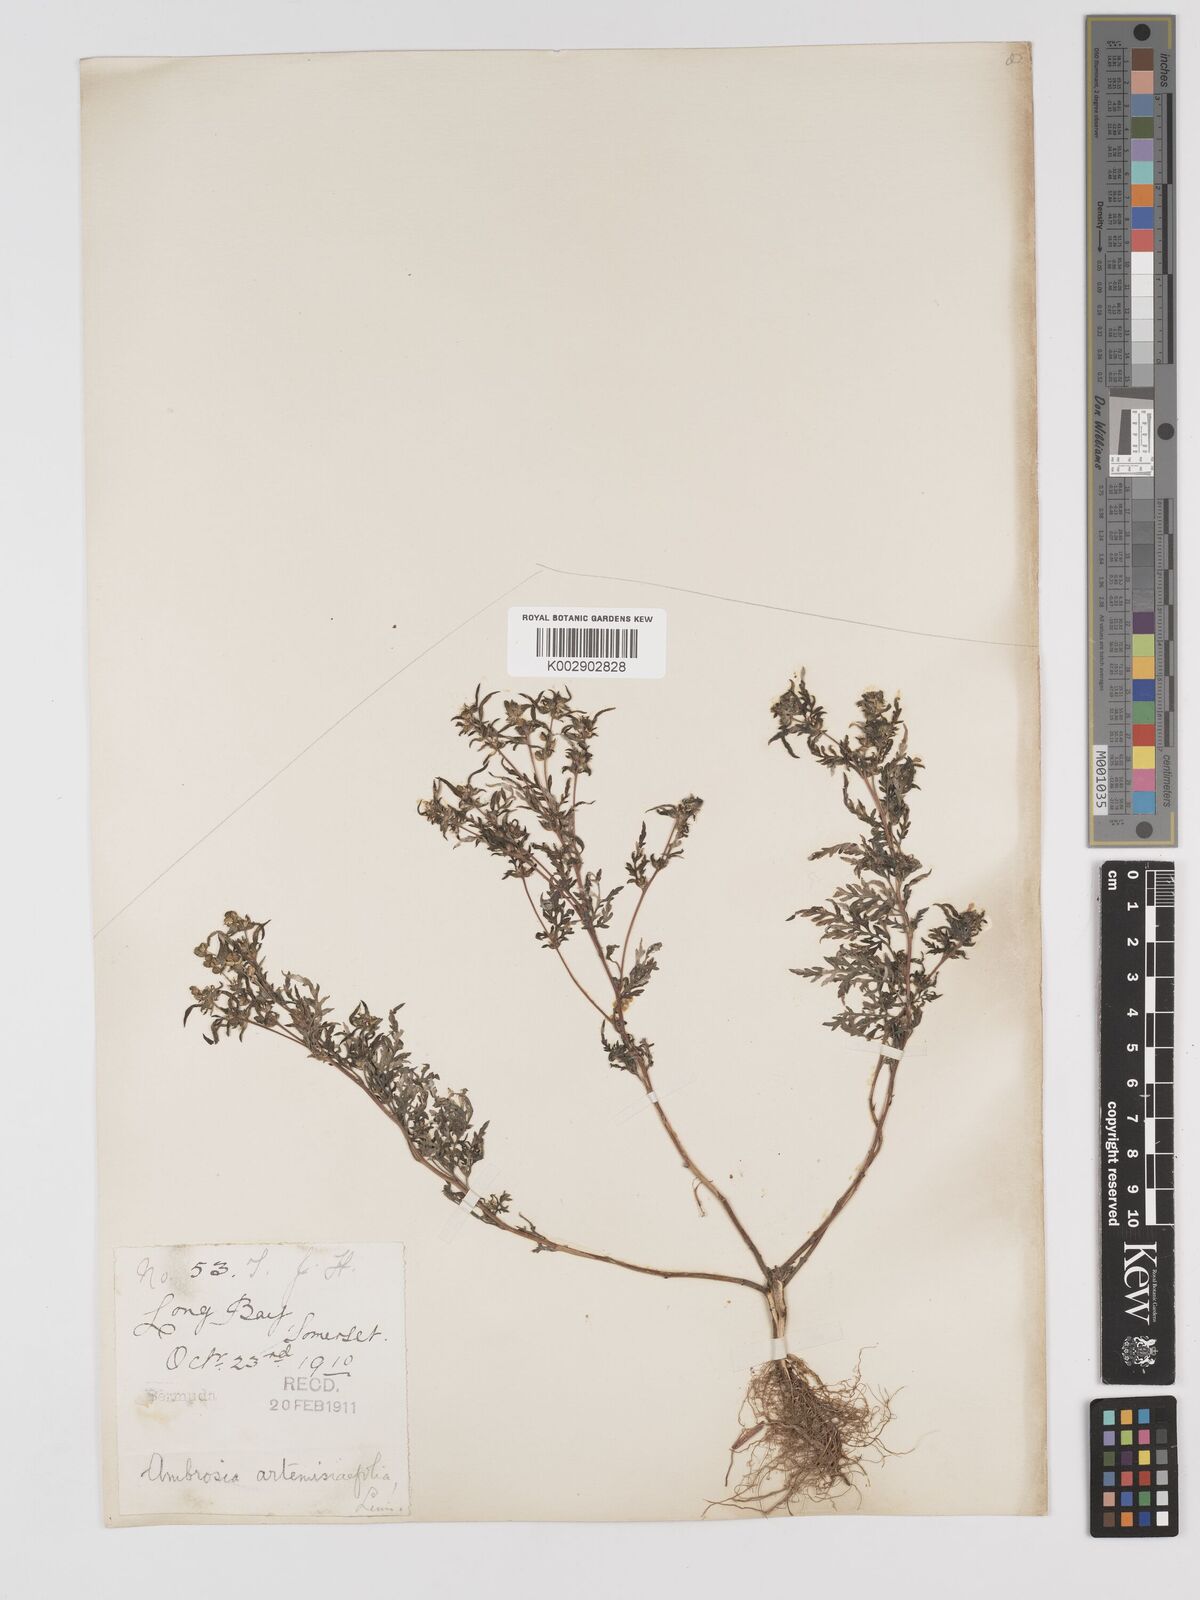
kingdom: Plantae
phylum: Tracheophyta
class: Magnoliopsida
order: Asterales
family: Asteraceae
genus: Ambrosia
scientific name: Ambrosia artemisiifolia
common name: Annual ragweed
